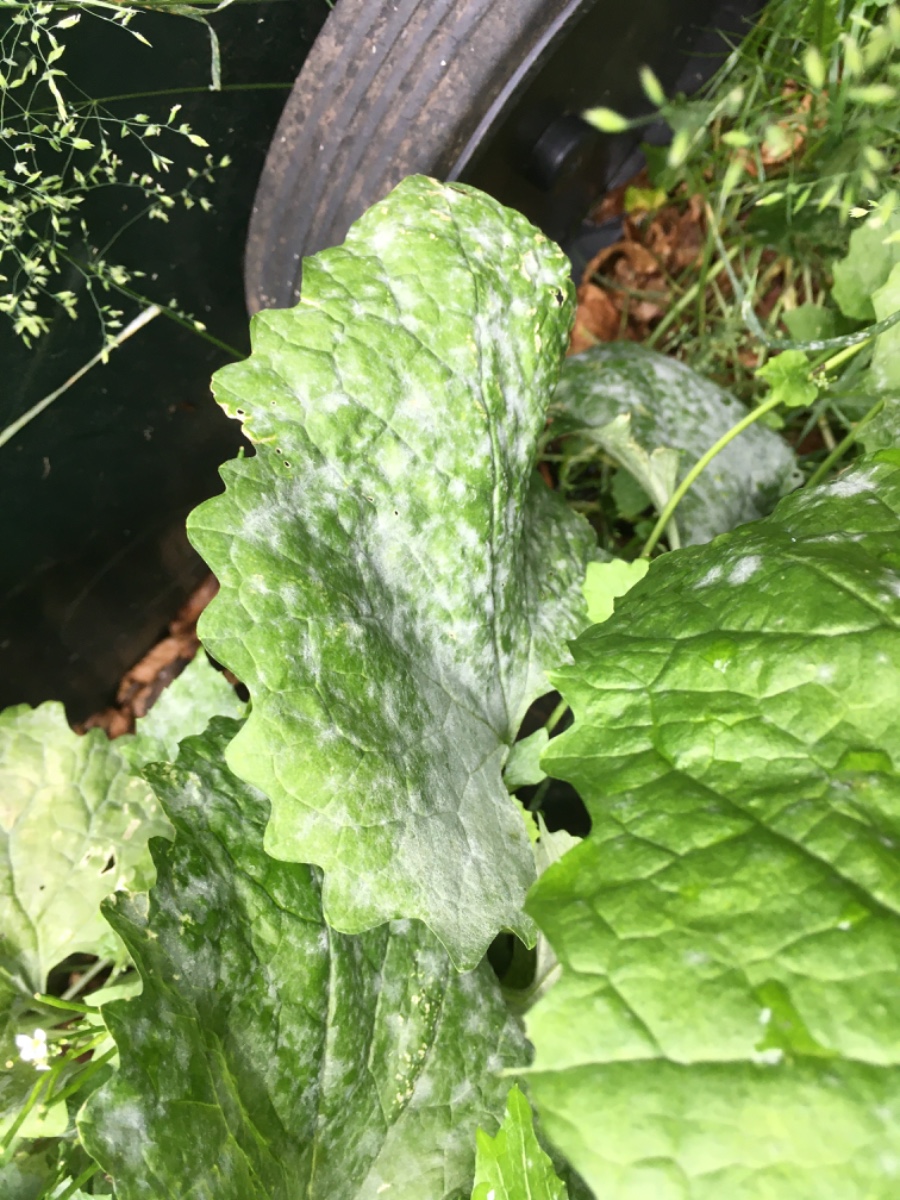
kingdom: Fungi
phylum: Ascomycota
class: Leotiomycetes
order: Helotiales
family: Erysiphaceae
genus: Erysiphe
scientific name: Erysiphe cruciferarum
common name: korsblomst-meldug
